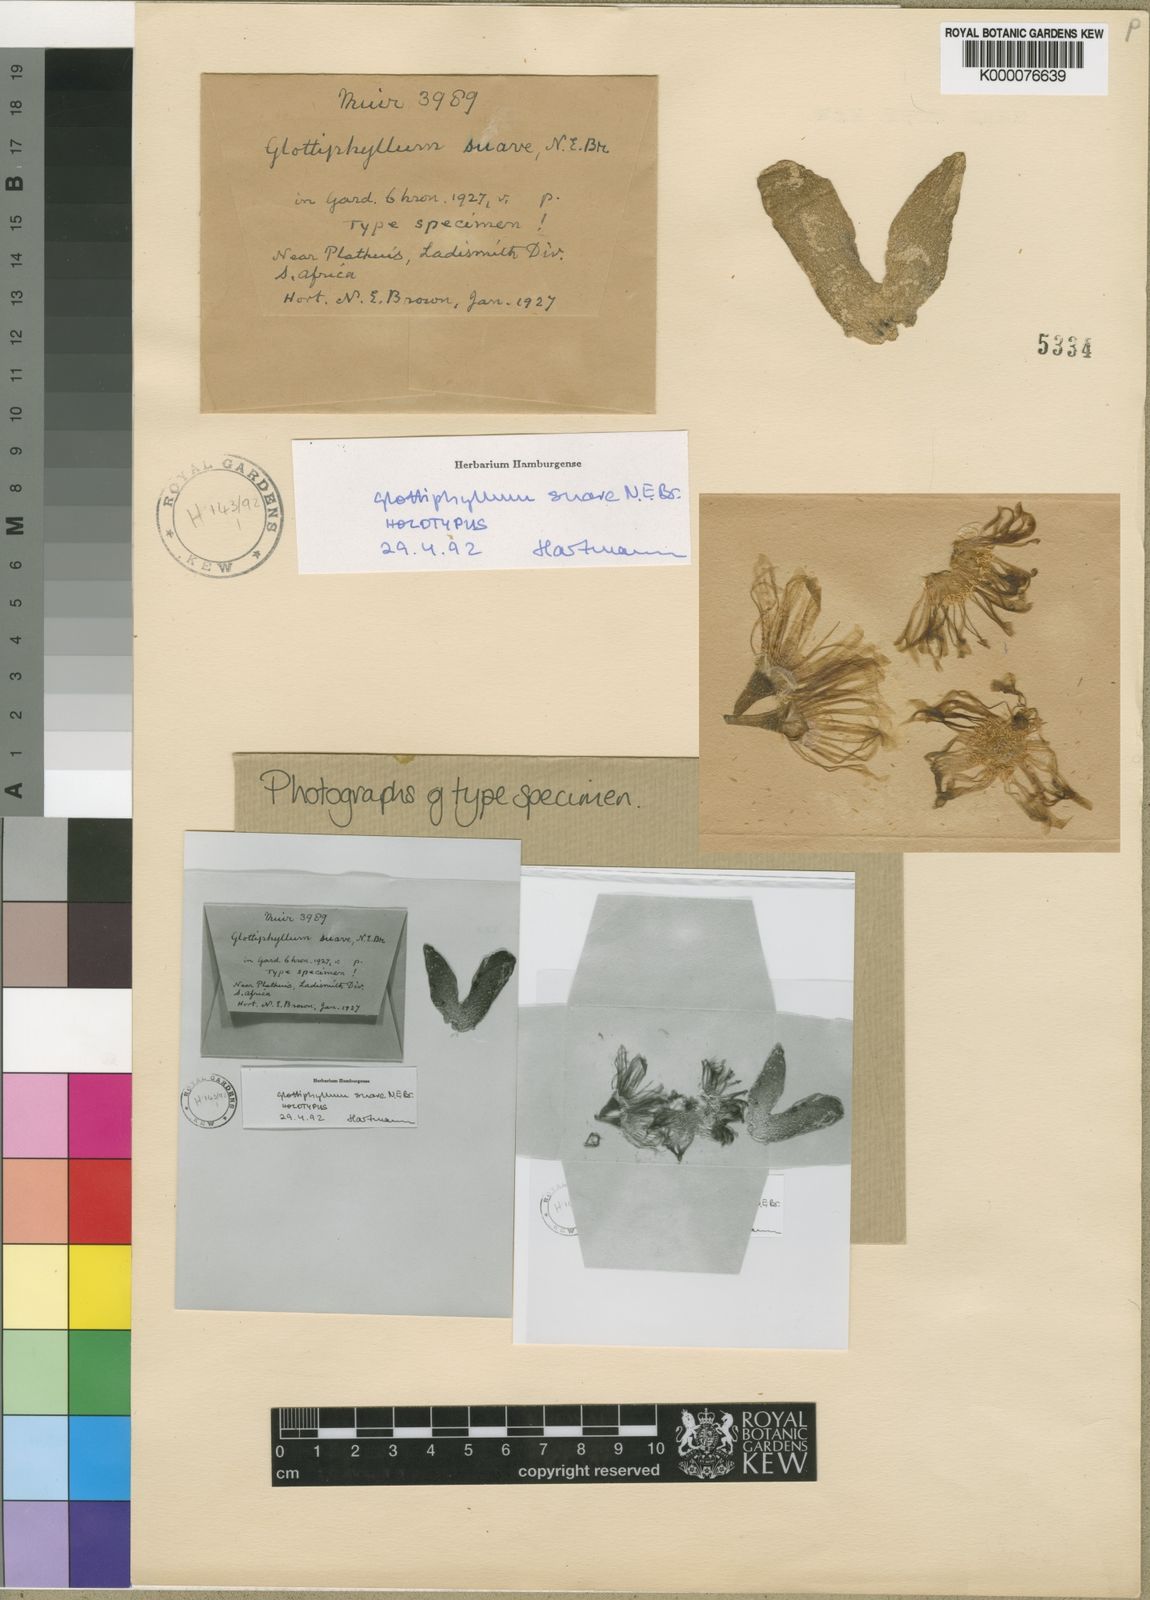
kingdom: Plantae
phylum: Tracheophyta
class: Magnoliopsida
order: Caryophyllales
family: Aizoaceae
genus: Glottiphyllum
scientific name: Glottiphyllum suave
